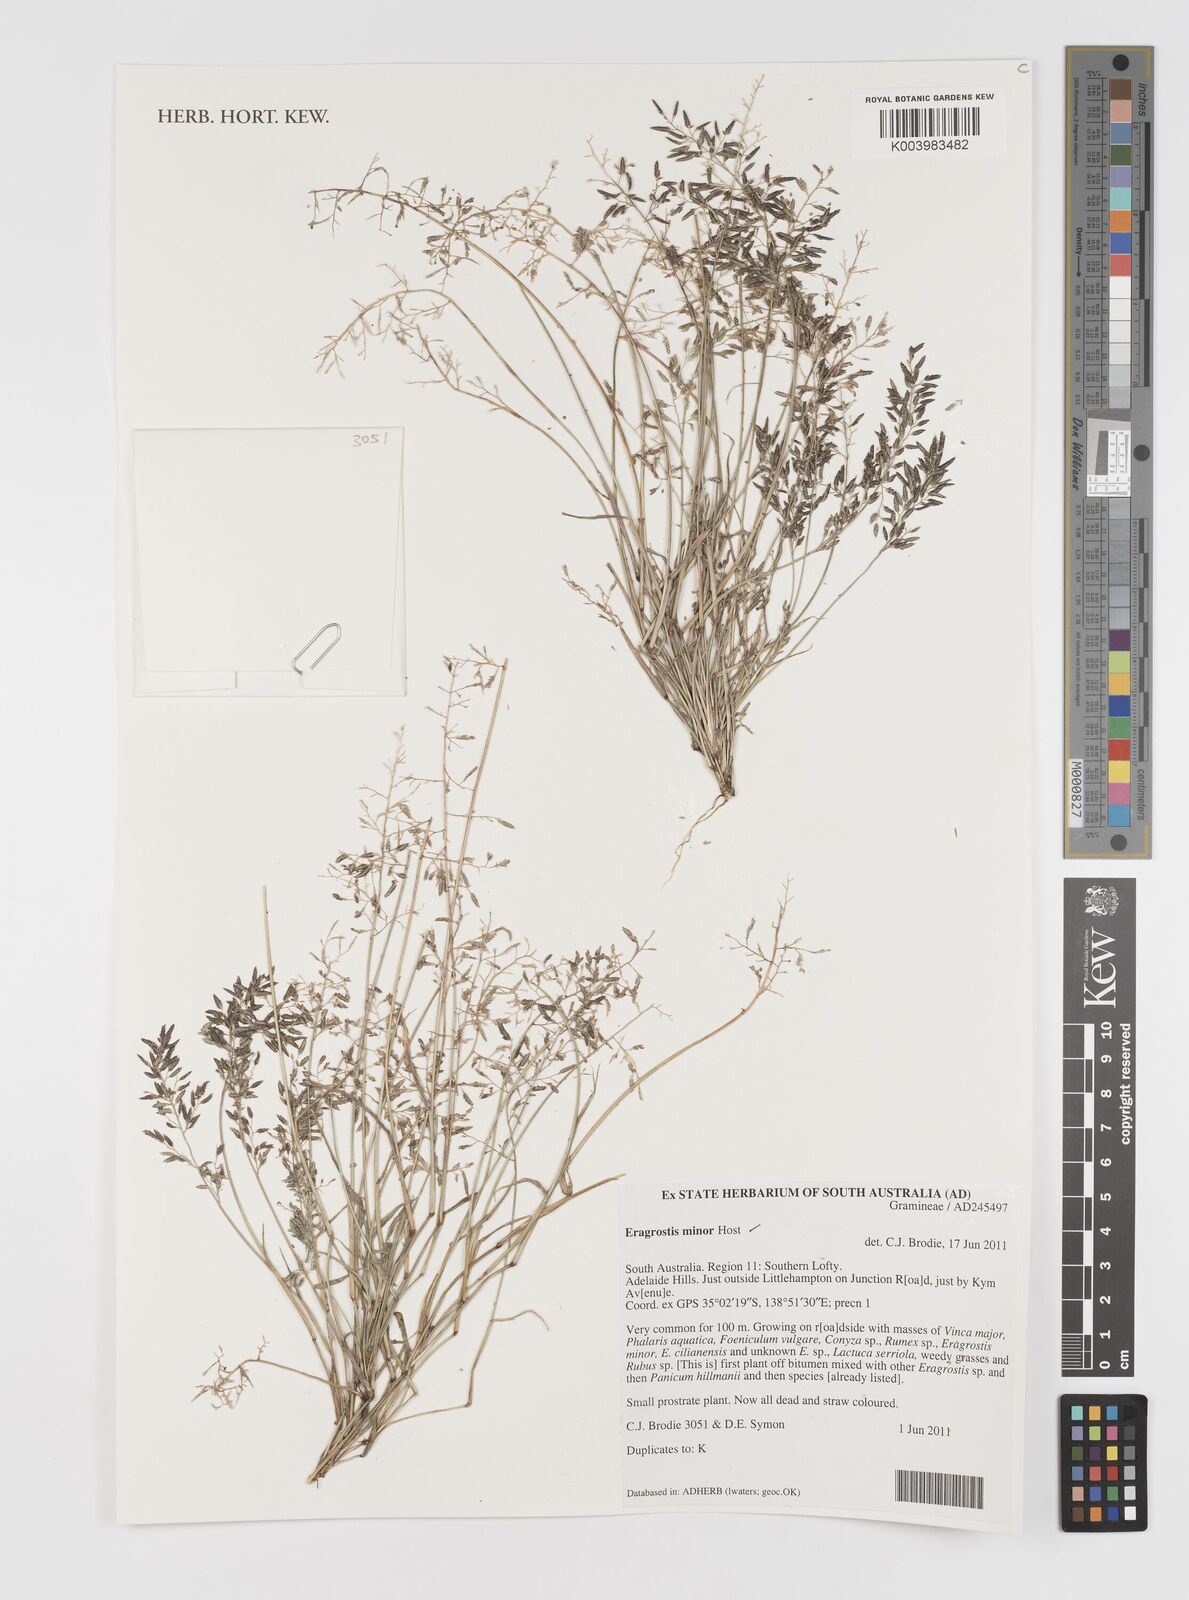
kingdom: Plantae
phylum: Tracheophyta
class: Liliopsida
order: Poales
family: Poaceae
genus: Eragrostis
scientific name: Eragrostis minor
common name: Small love-grass
